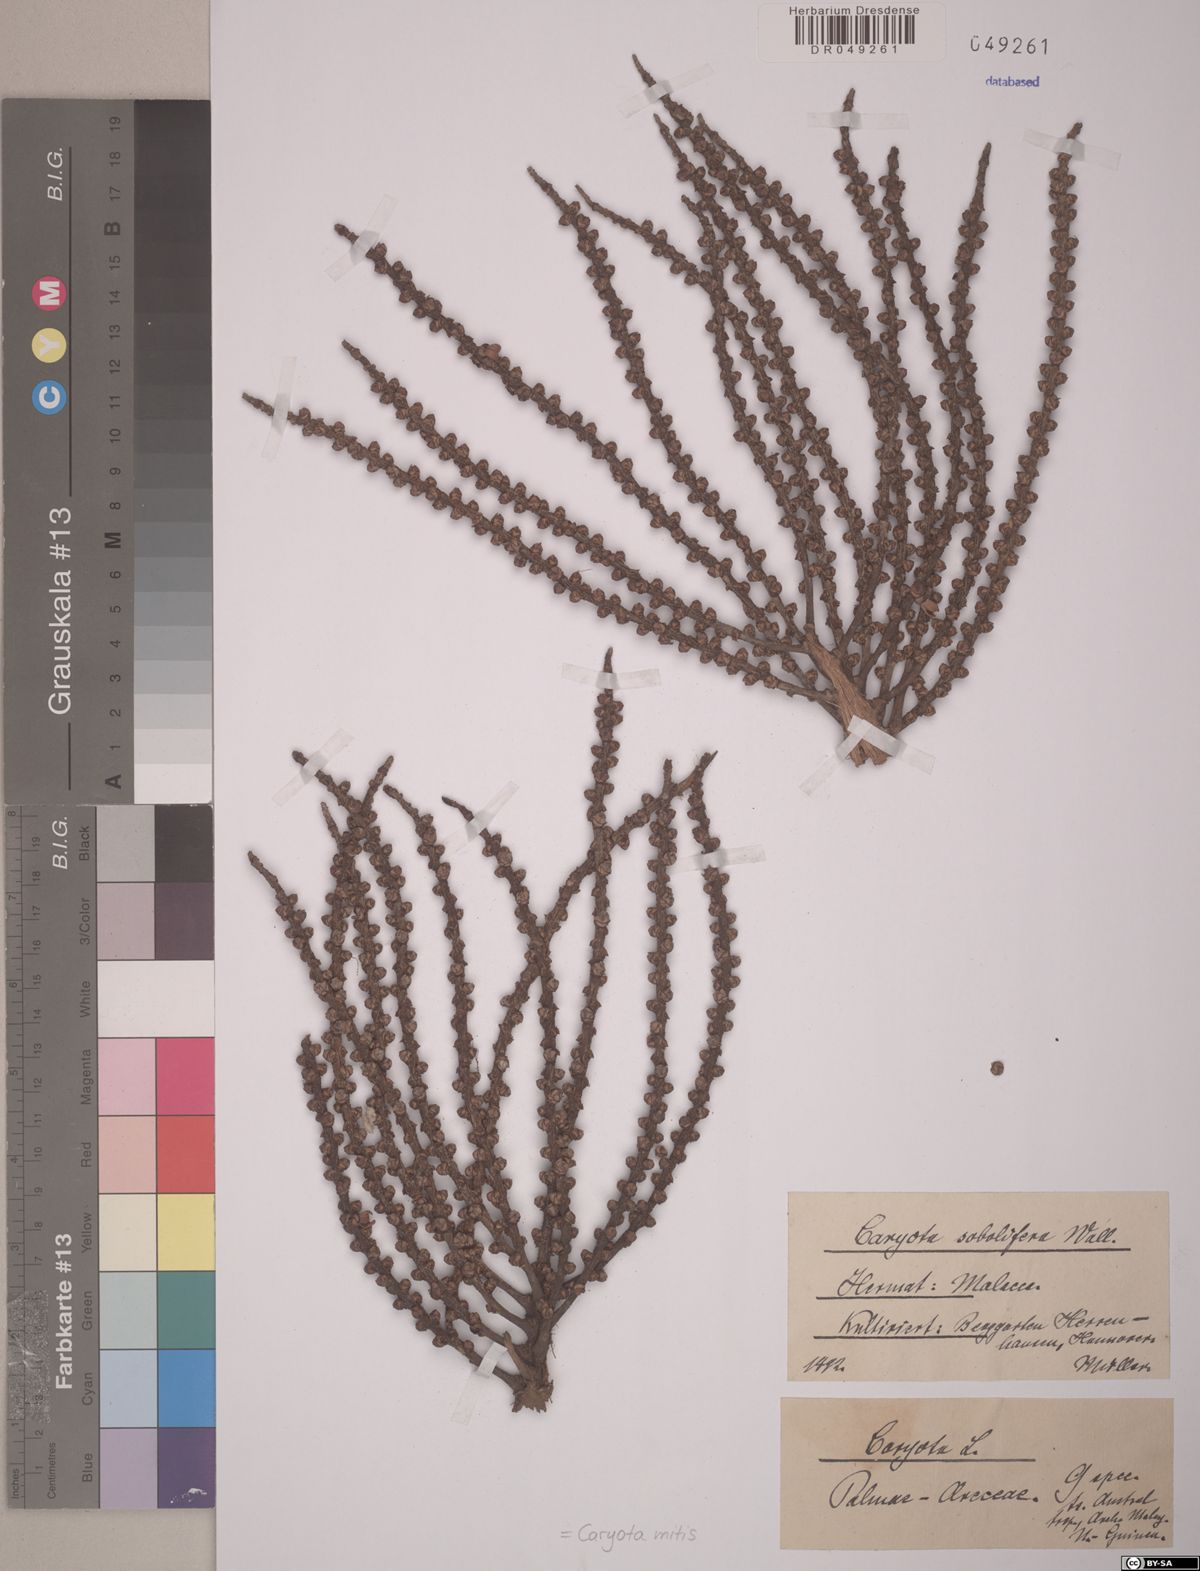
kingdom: Plantae
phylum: Tracheophyta
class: Liliopsida
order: Arecales
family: Arecaceae
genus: Caryota
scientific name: Caryota mitis
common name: Burmese fishtail palm
